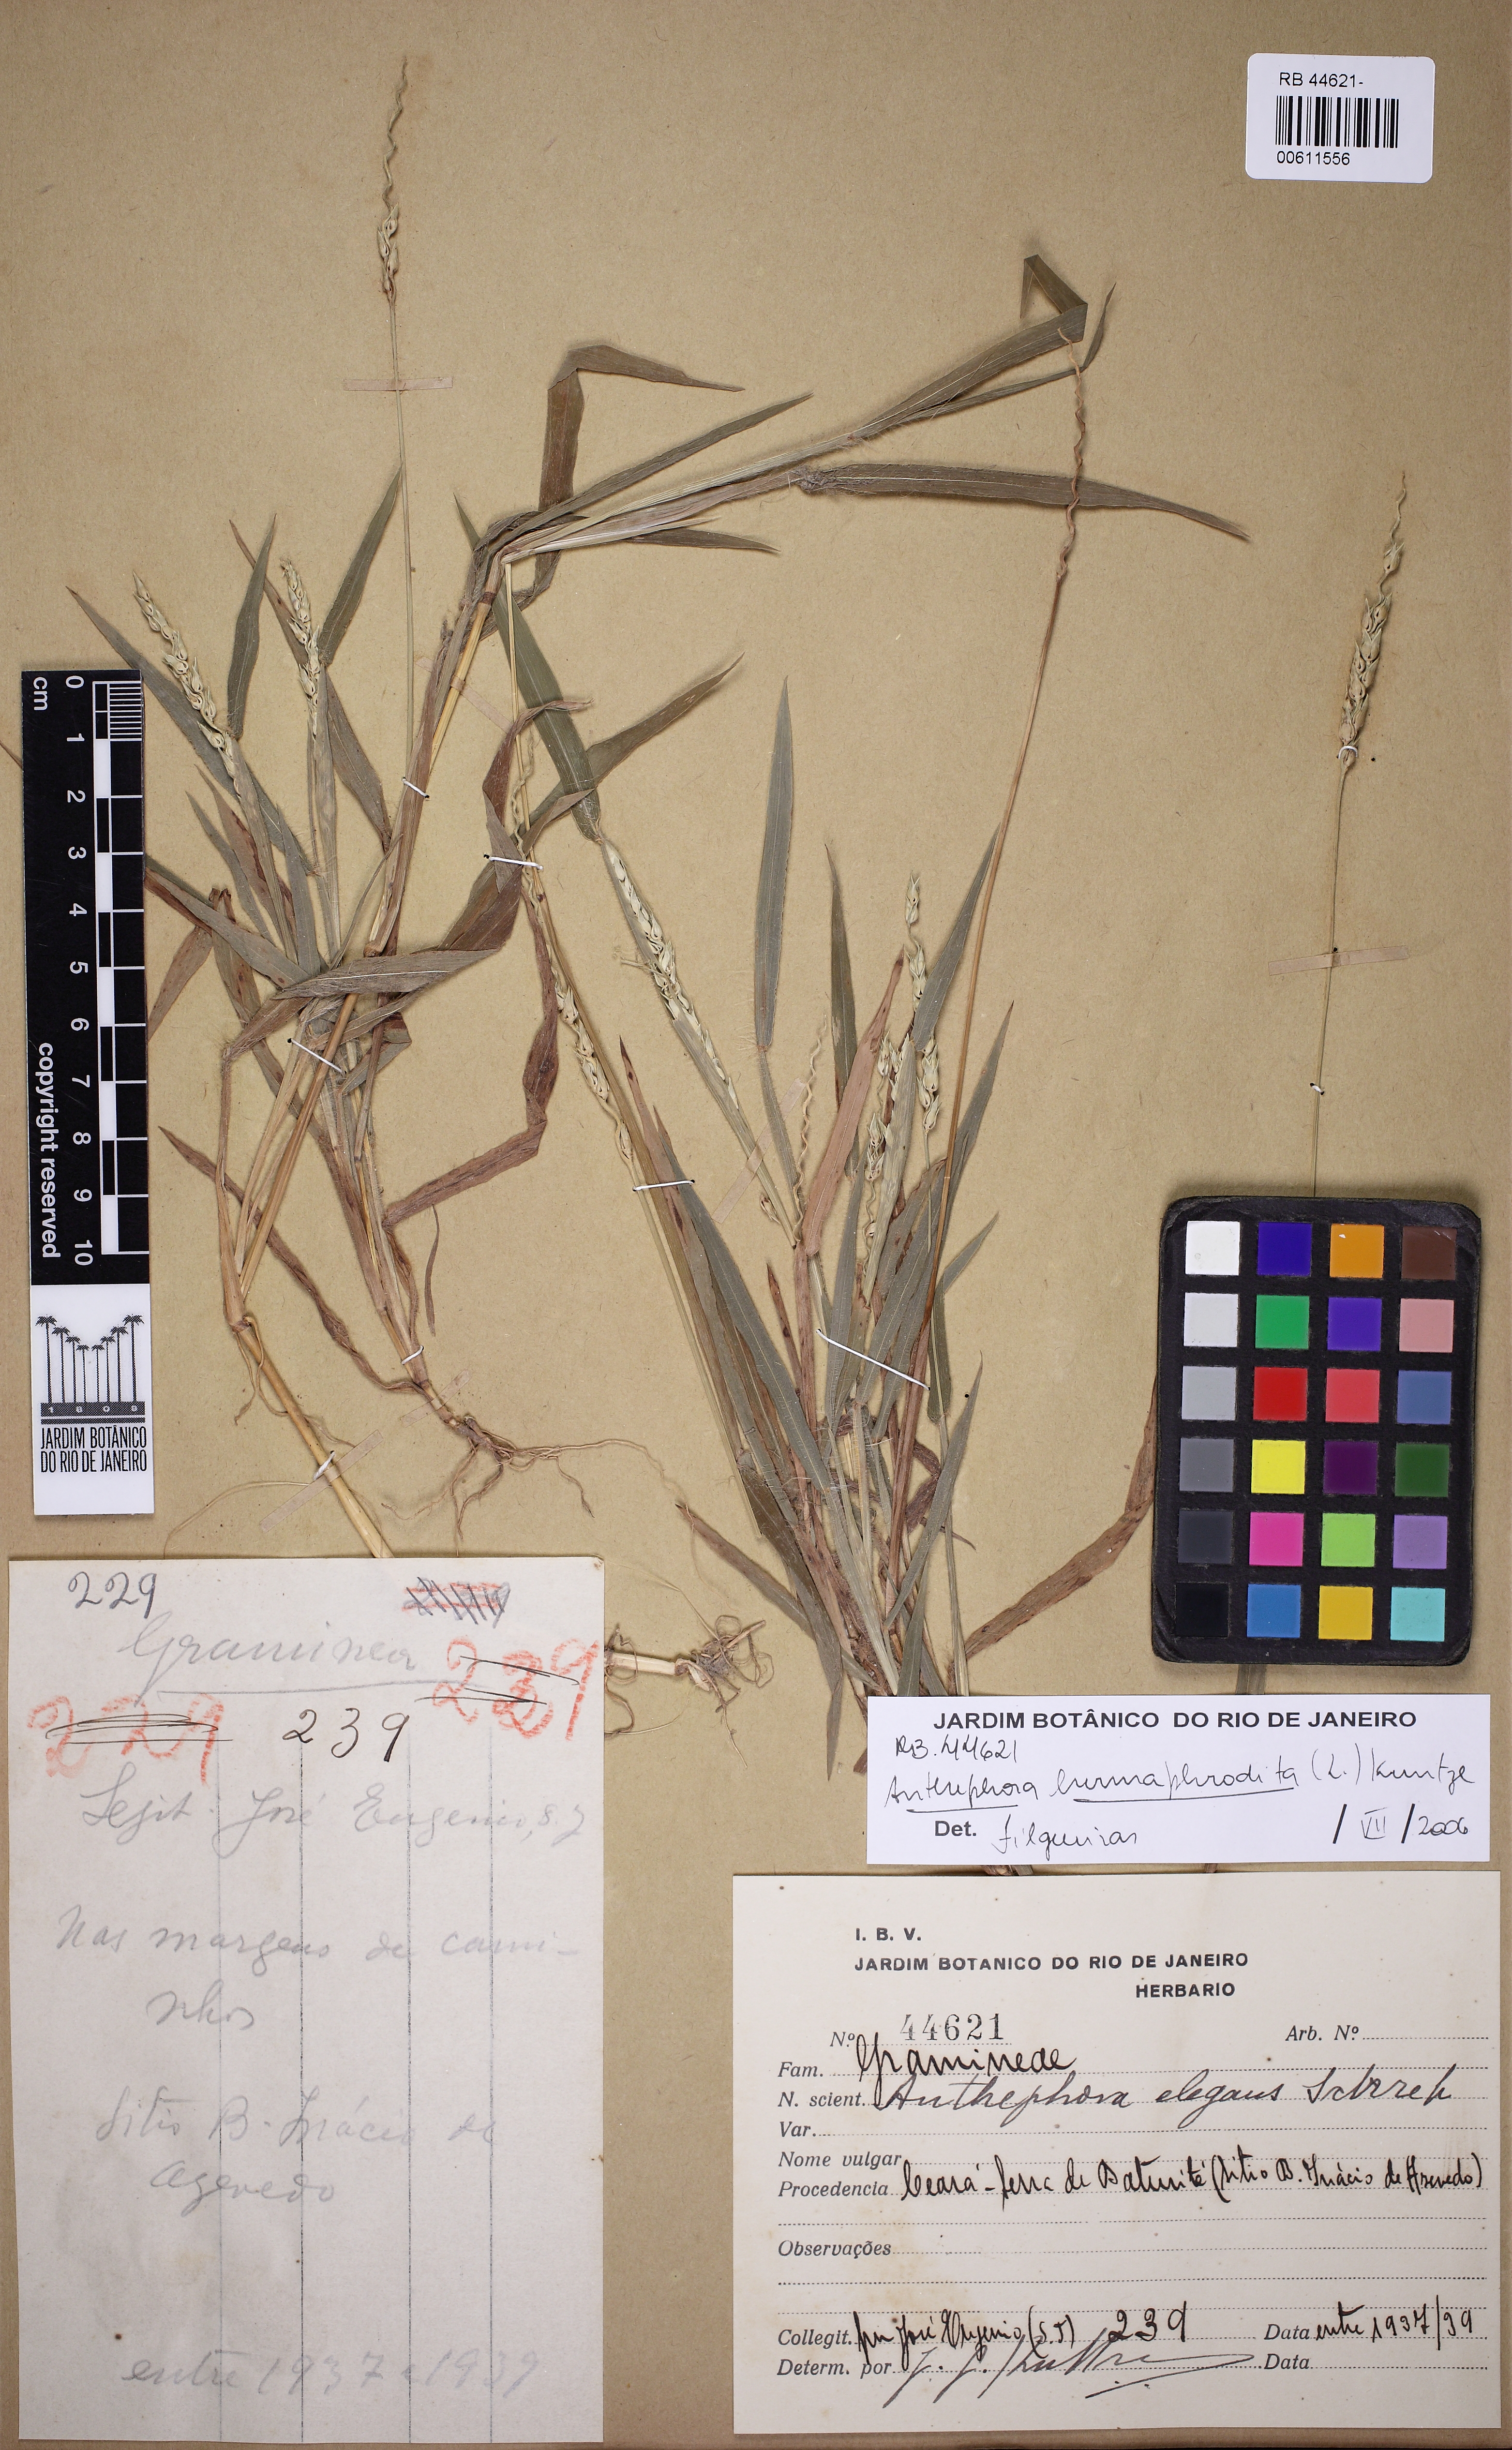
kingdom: Plantae
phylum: Tracheophyta
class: Liliopsida
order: Poales
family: Poaceae
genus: Anthephora
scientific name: Anthephora hermaphrodita
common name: Oldfield grass
